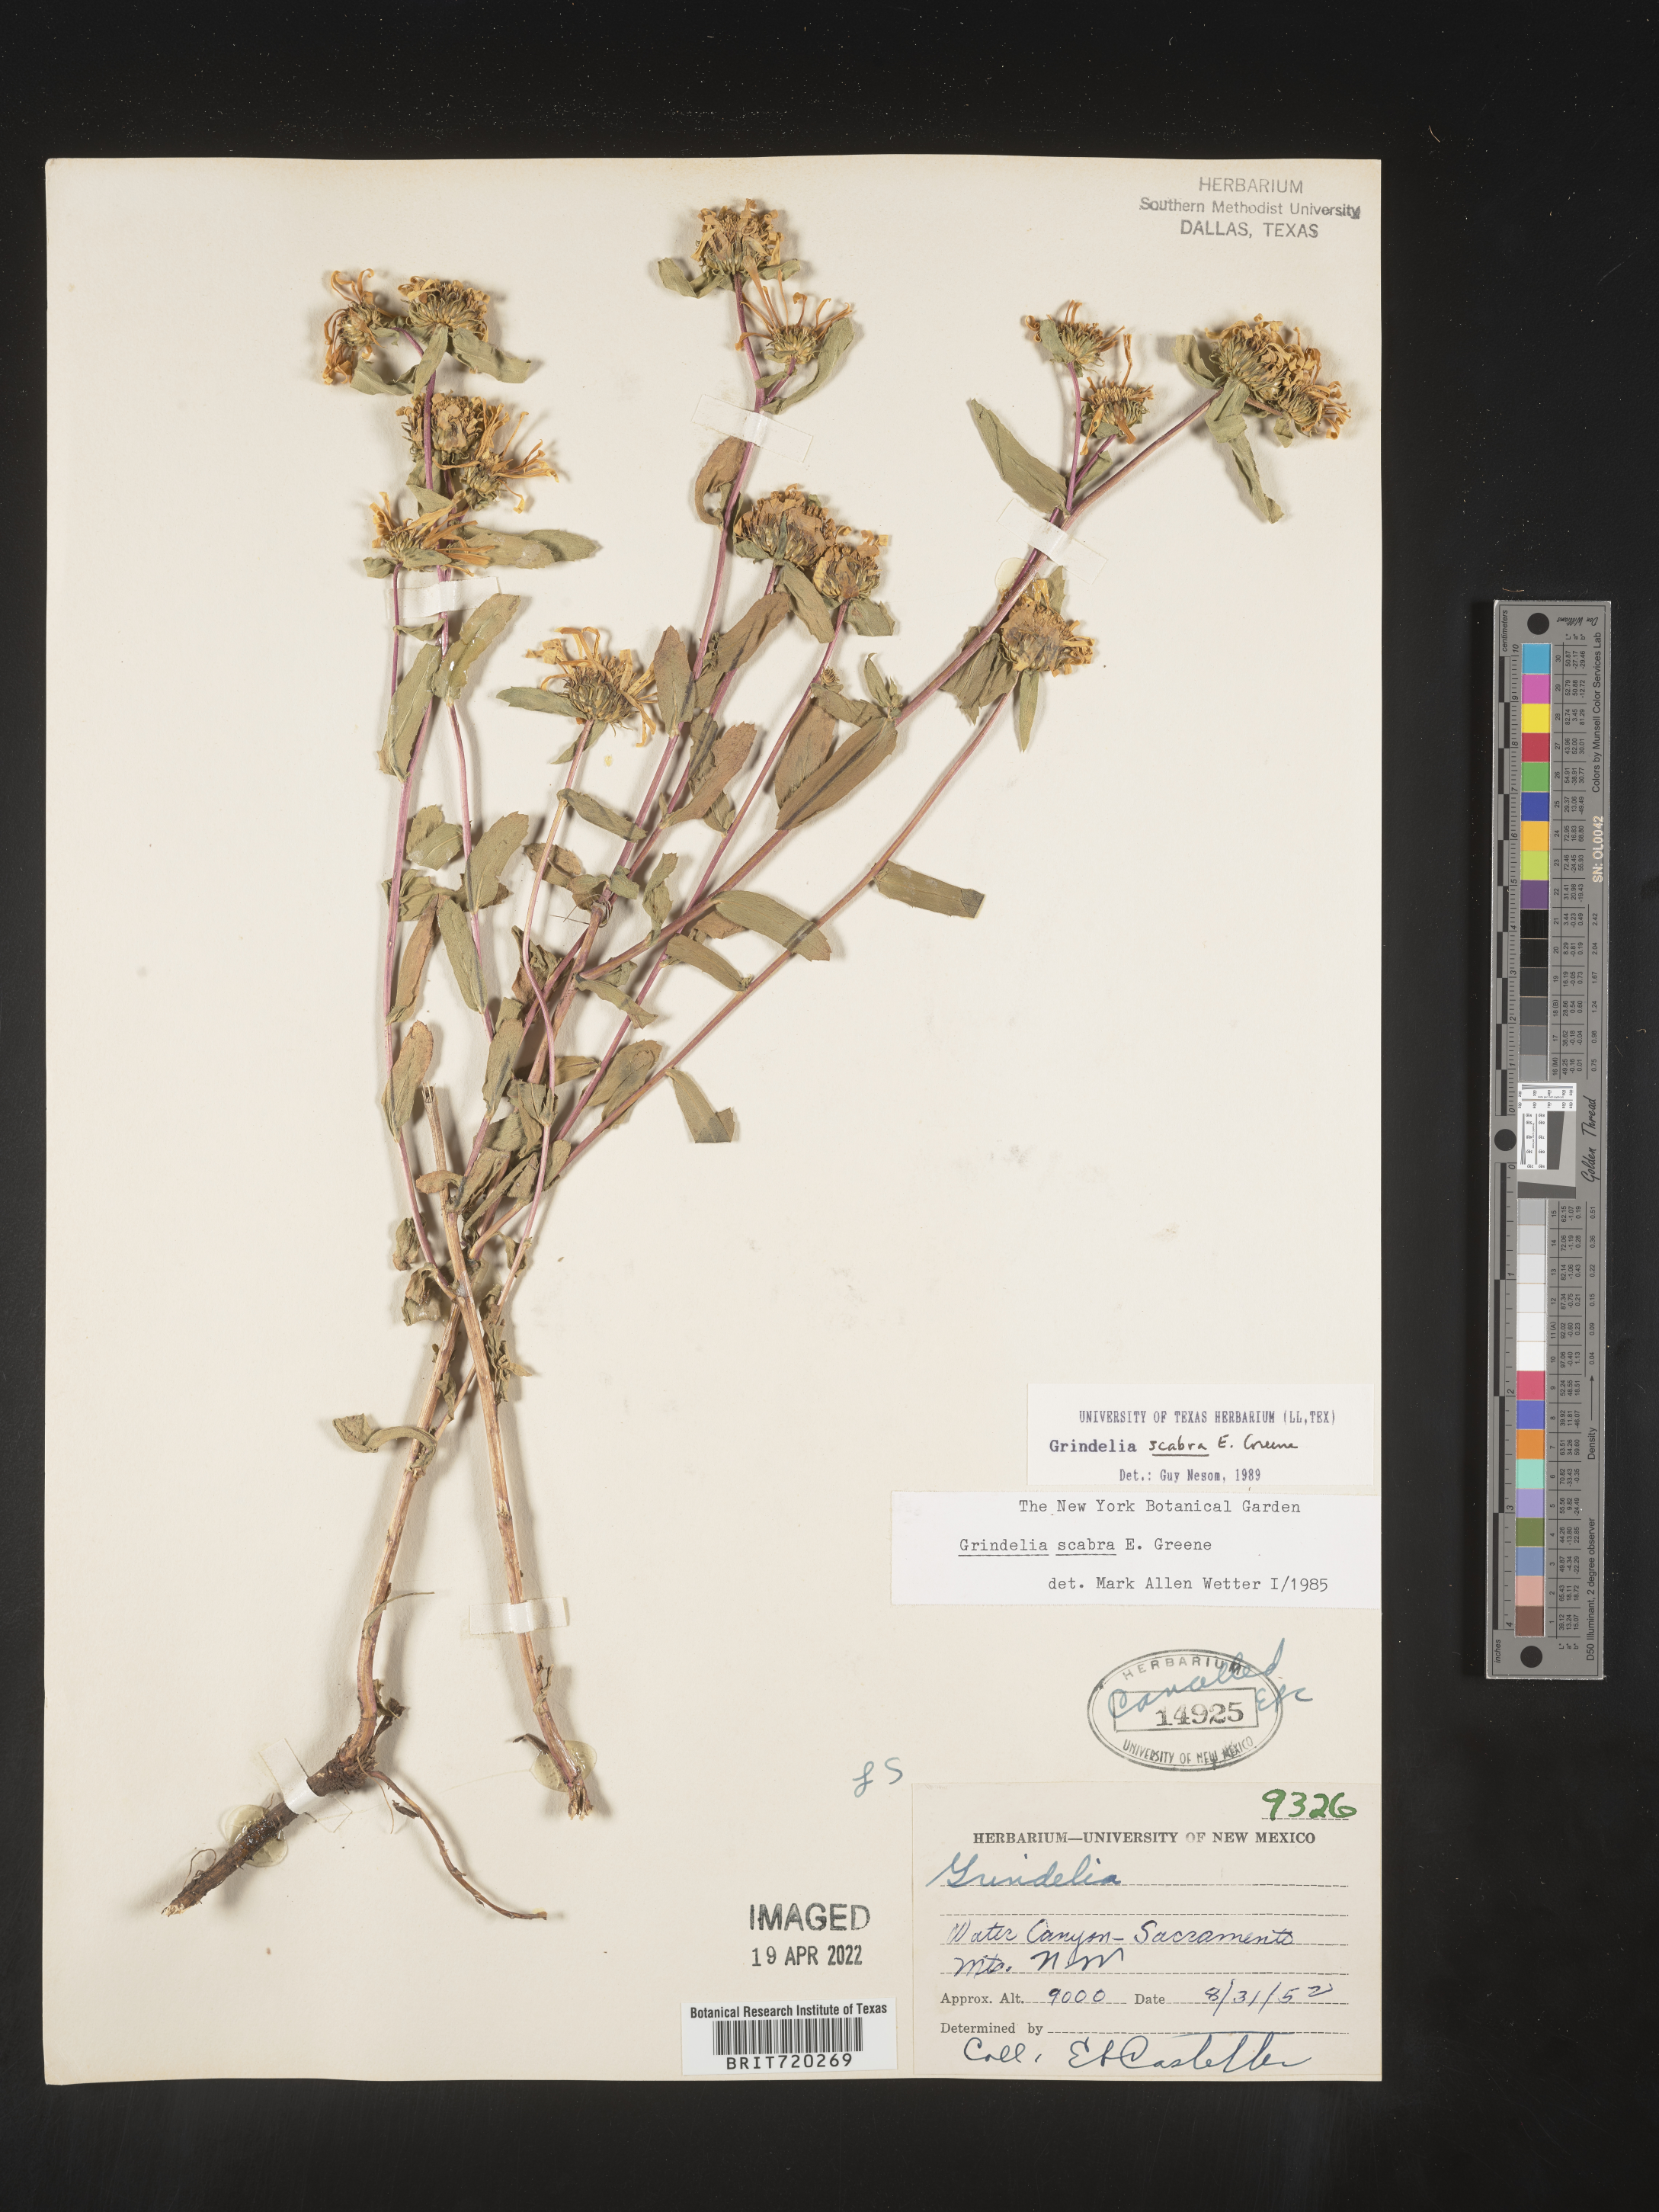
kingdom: Plantae
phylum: Tracheophyta
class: Magnoliopsida
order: Asterales
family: Asteraceae
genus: Grindelia
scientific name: Grindelia scabra
